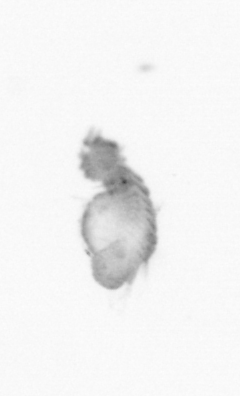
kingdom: Animalia
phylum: Annelida
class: Polychaeta
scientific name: Polychaeta
